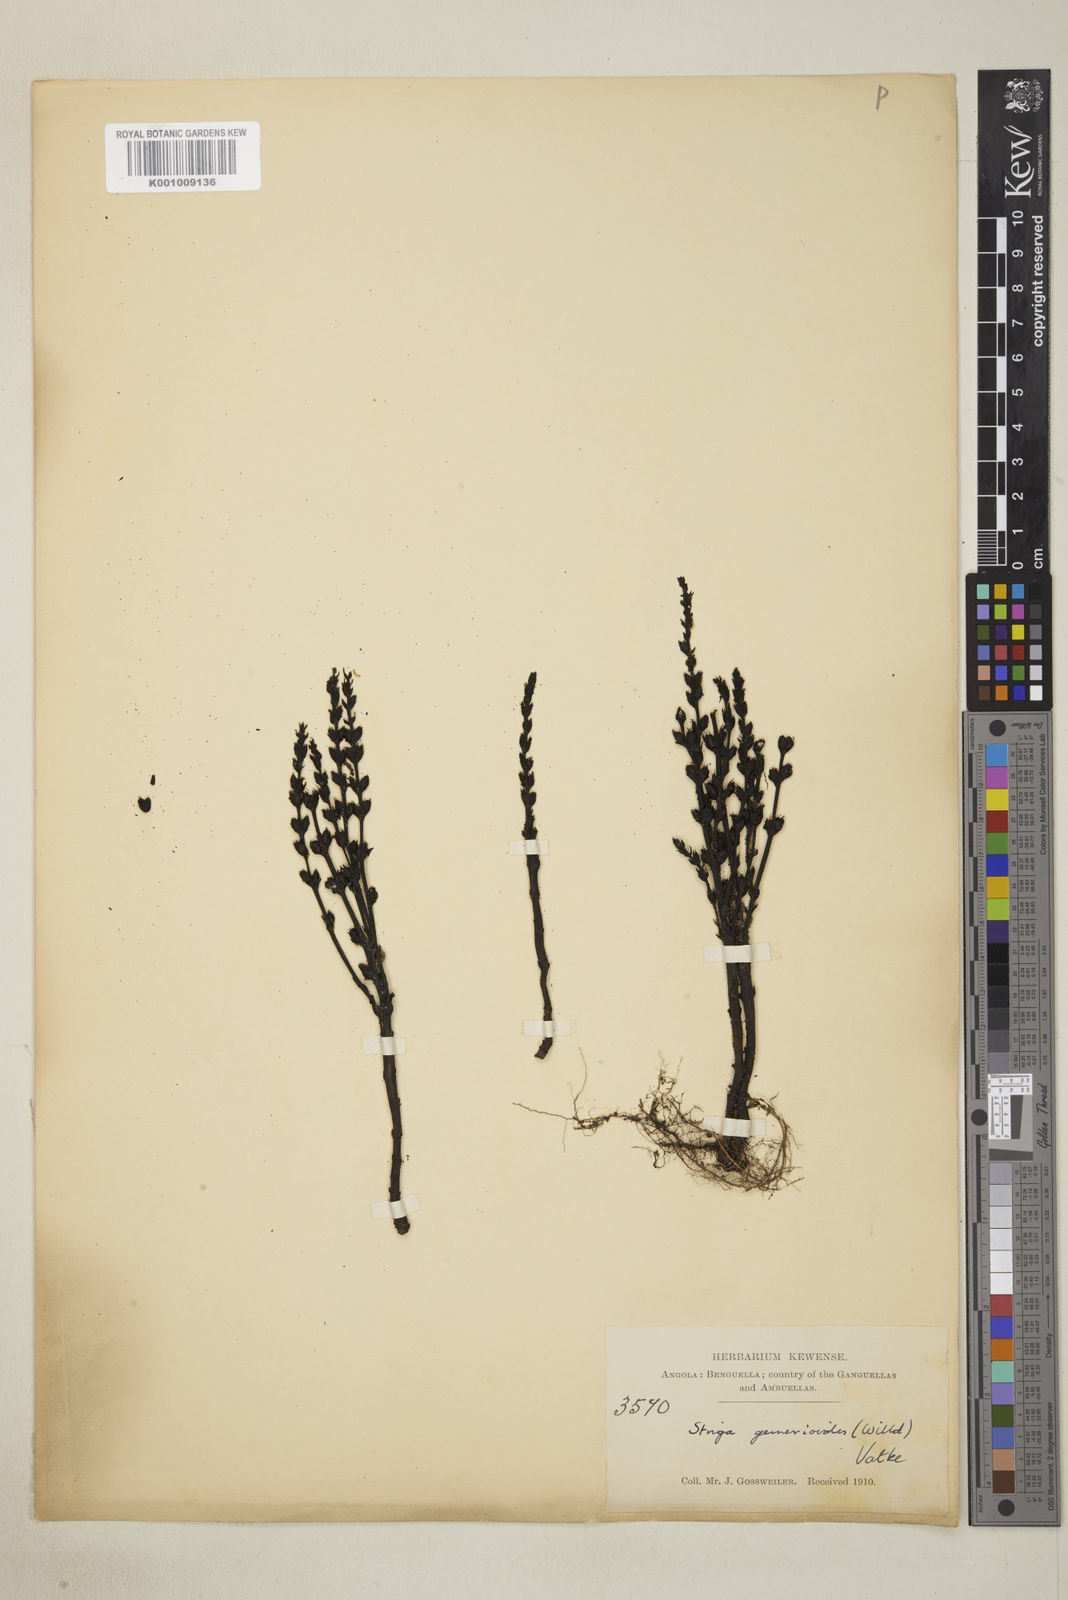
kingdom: Plantae
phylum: Tracheophyta
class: Magnoliopsida
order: Lamiales
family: Orobanchaceae
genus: Striga
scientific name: Striga gesnerioides
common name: Cowpea witchweed
